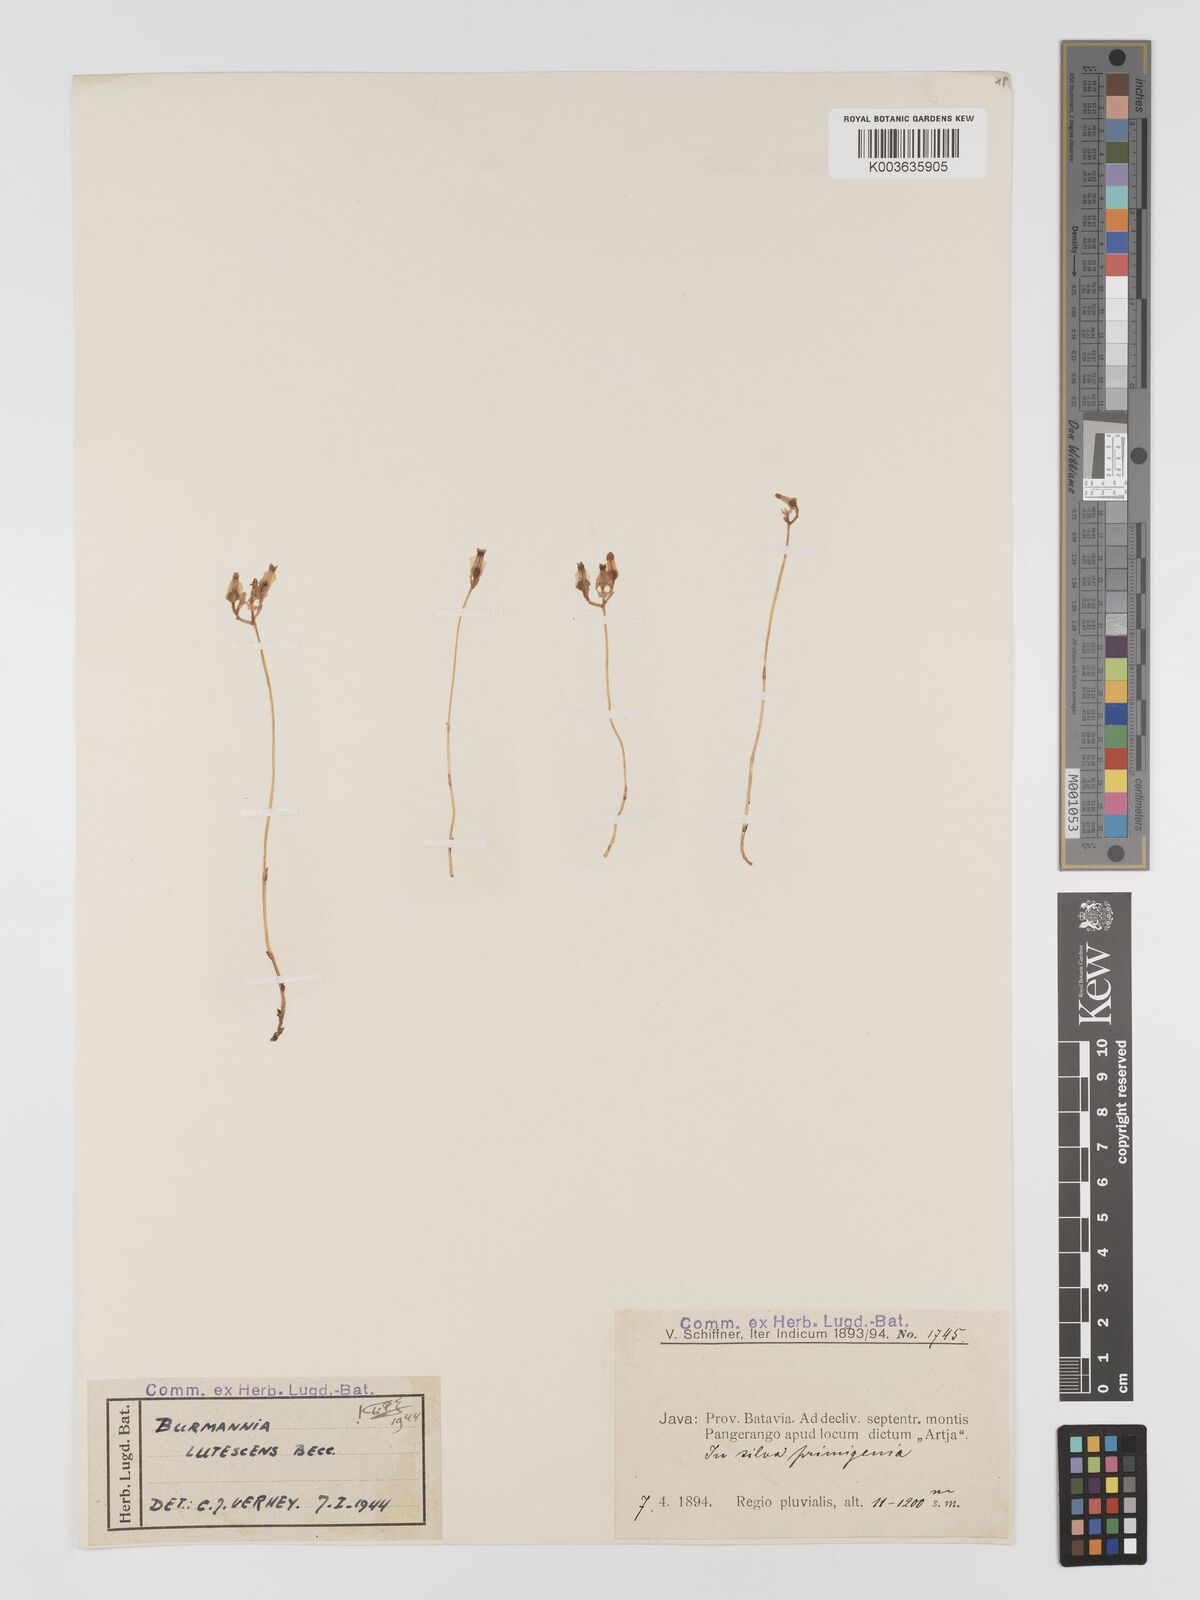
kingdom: Plantae
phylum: Tracheophyta
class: Liliopsida
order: Dioscoreales
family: Burmanniaceae
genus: Burmannia
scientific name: Burmannia lutescens
